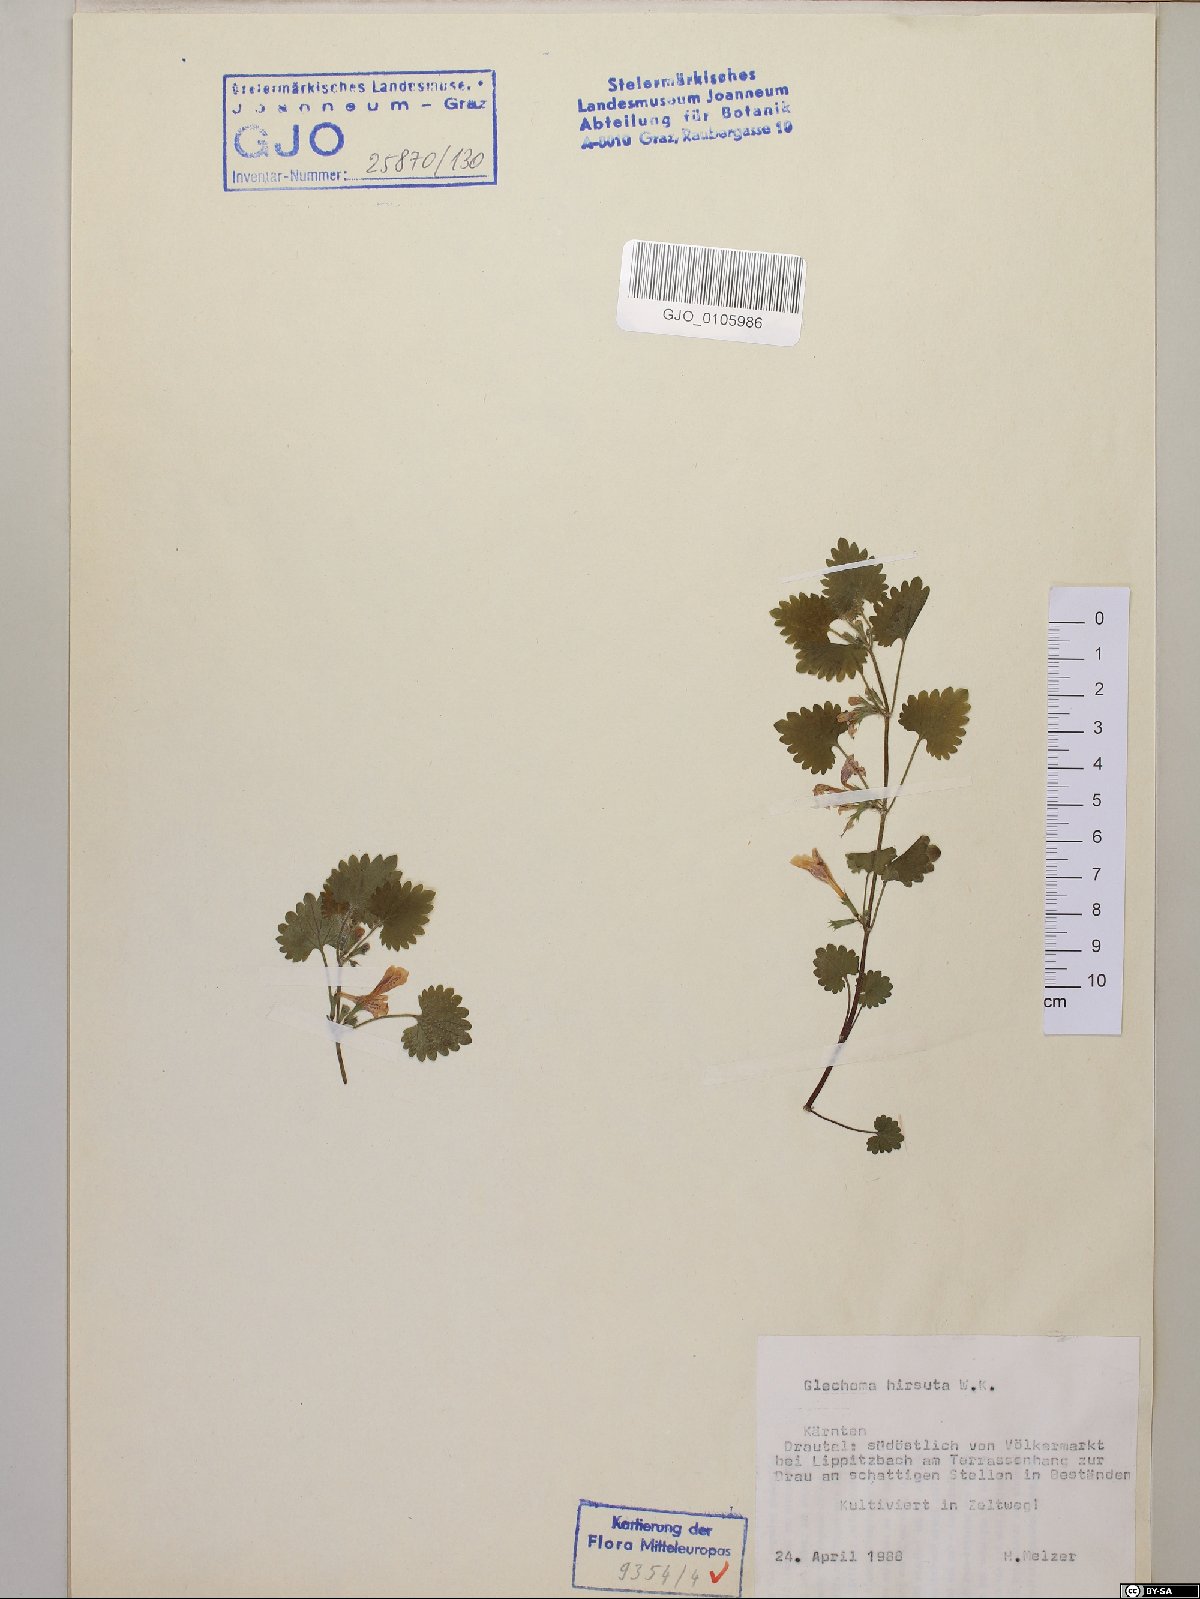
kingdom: Plantae
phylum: Tracheophyta
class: Magnoliopsida
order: Lamiales
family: Lamiaceae
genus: Glechoma
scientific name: Glechoma hirsuta
